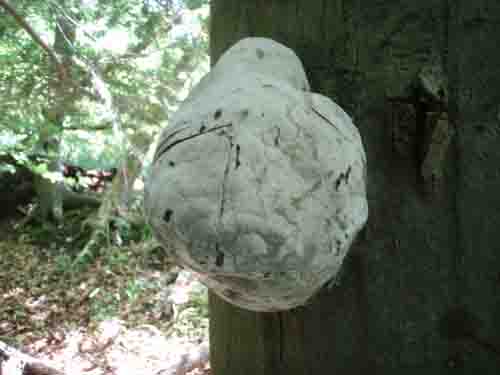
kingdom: Fungi
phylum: Basidiomycota
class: Agaricomycetes
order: Polyporales
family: Polyporaceae
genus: Fomes
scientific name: Fomes fomentarius
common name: tøndersvamp
